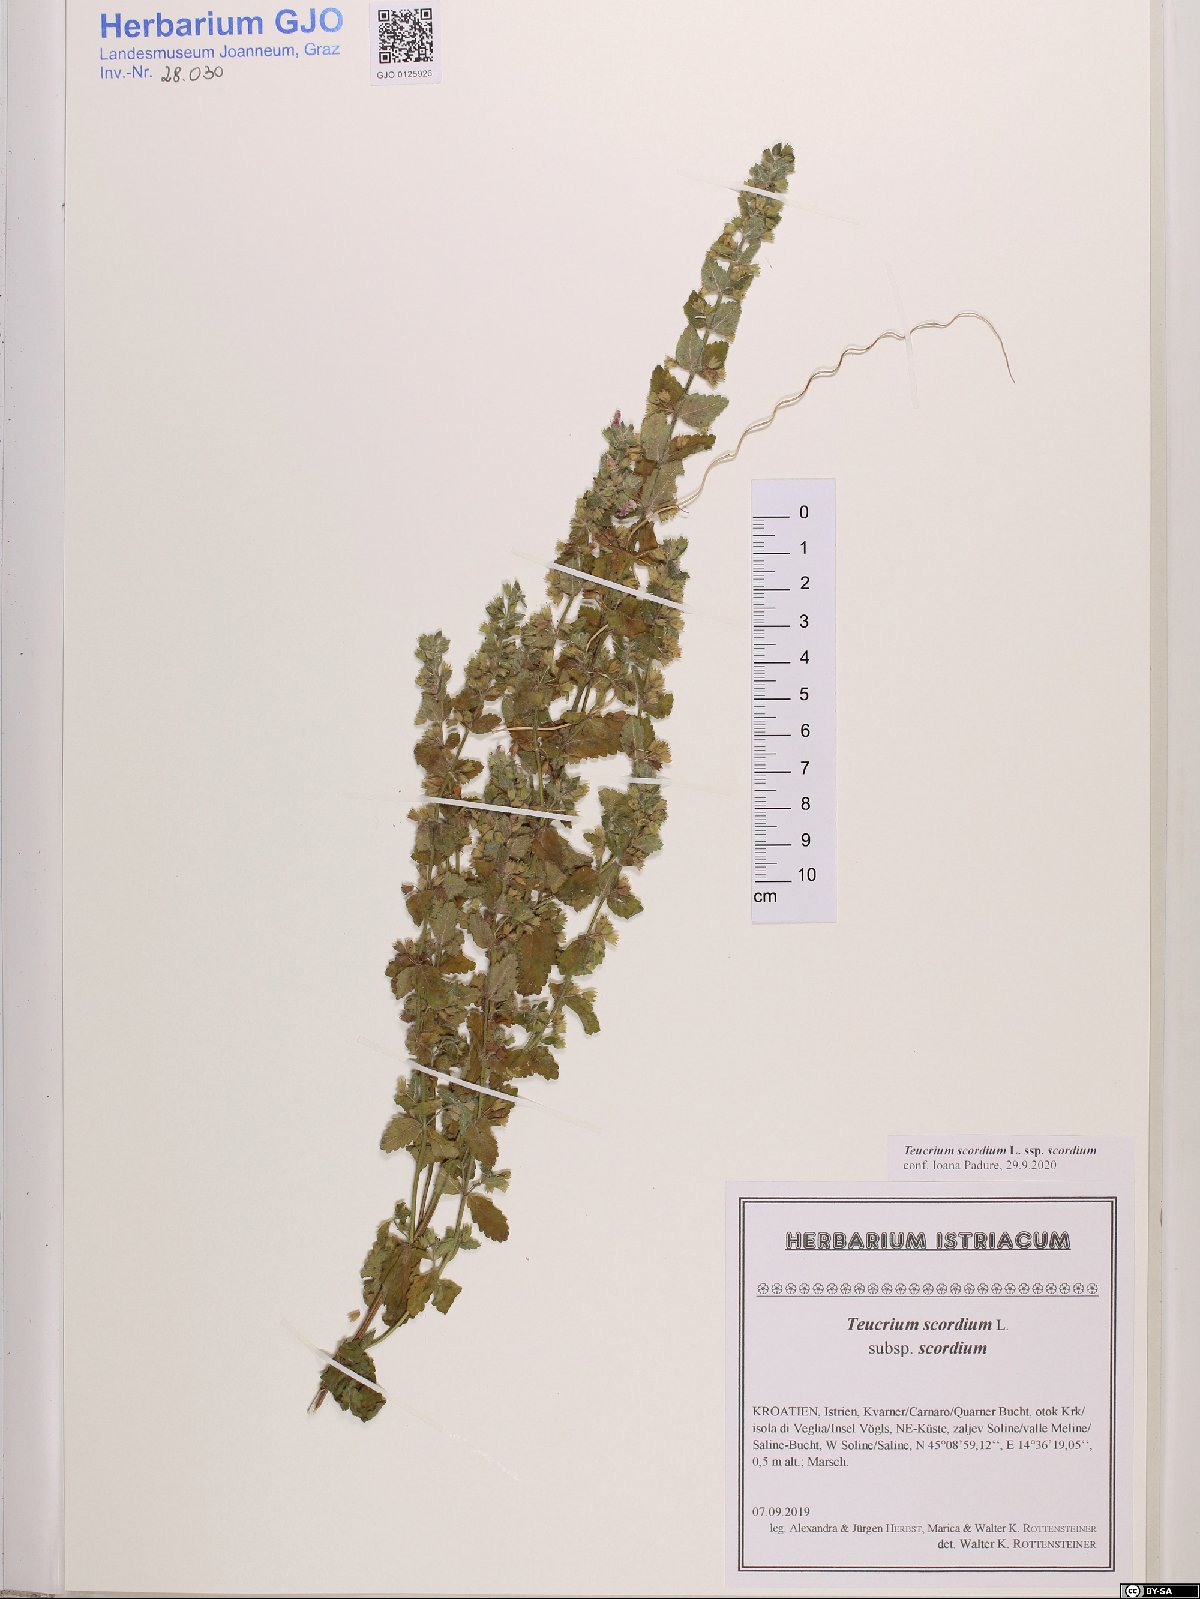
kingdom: Plantae
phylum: Tracheophyta
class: Magnoliopsida
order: Lamiales
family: Lamiaceae
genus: Teucrium
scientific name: Teucrium scordium
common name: Water germander
